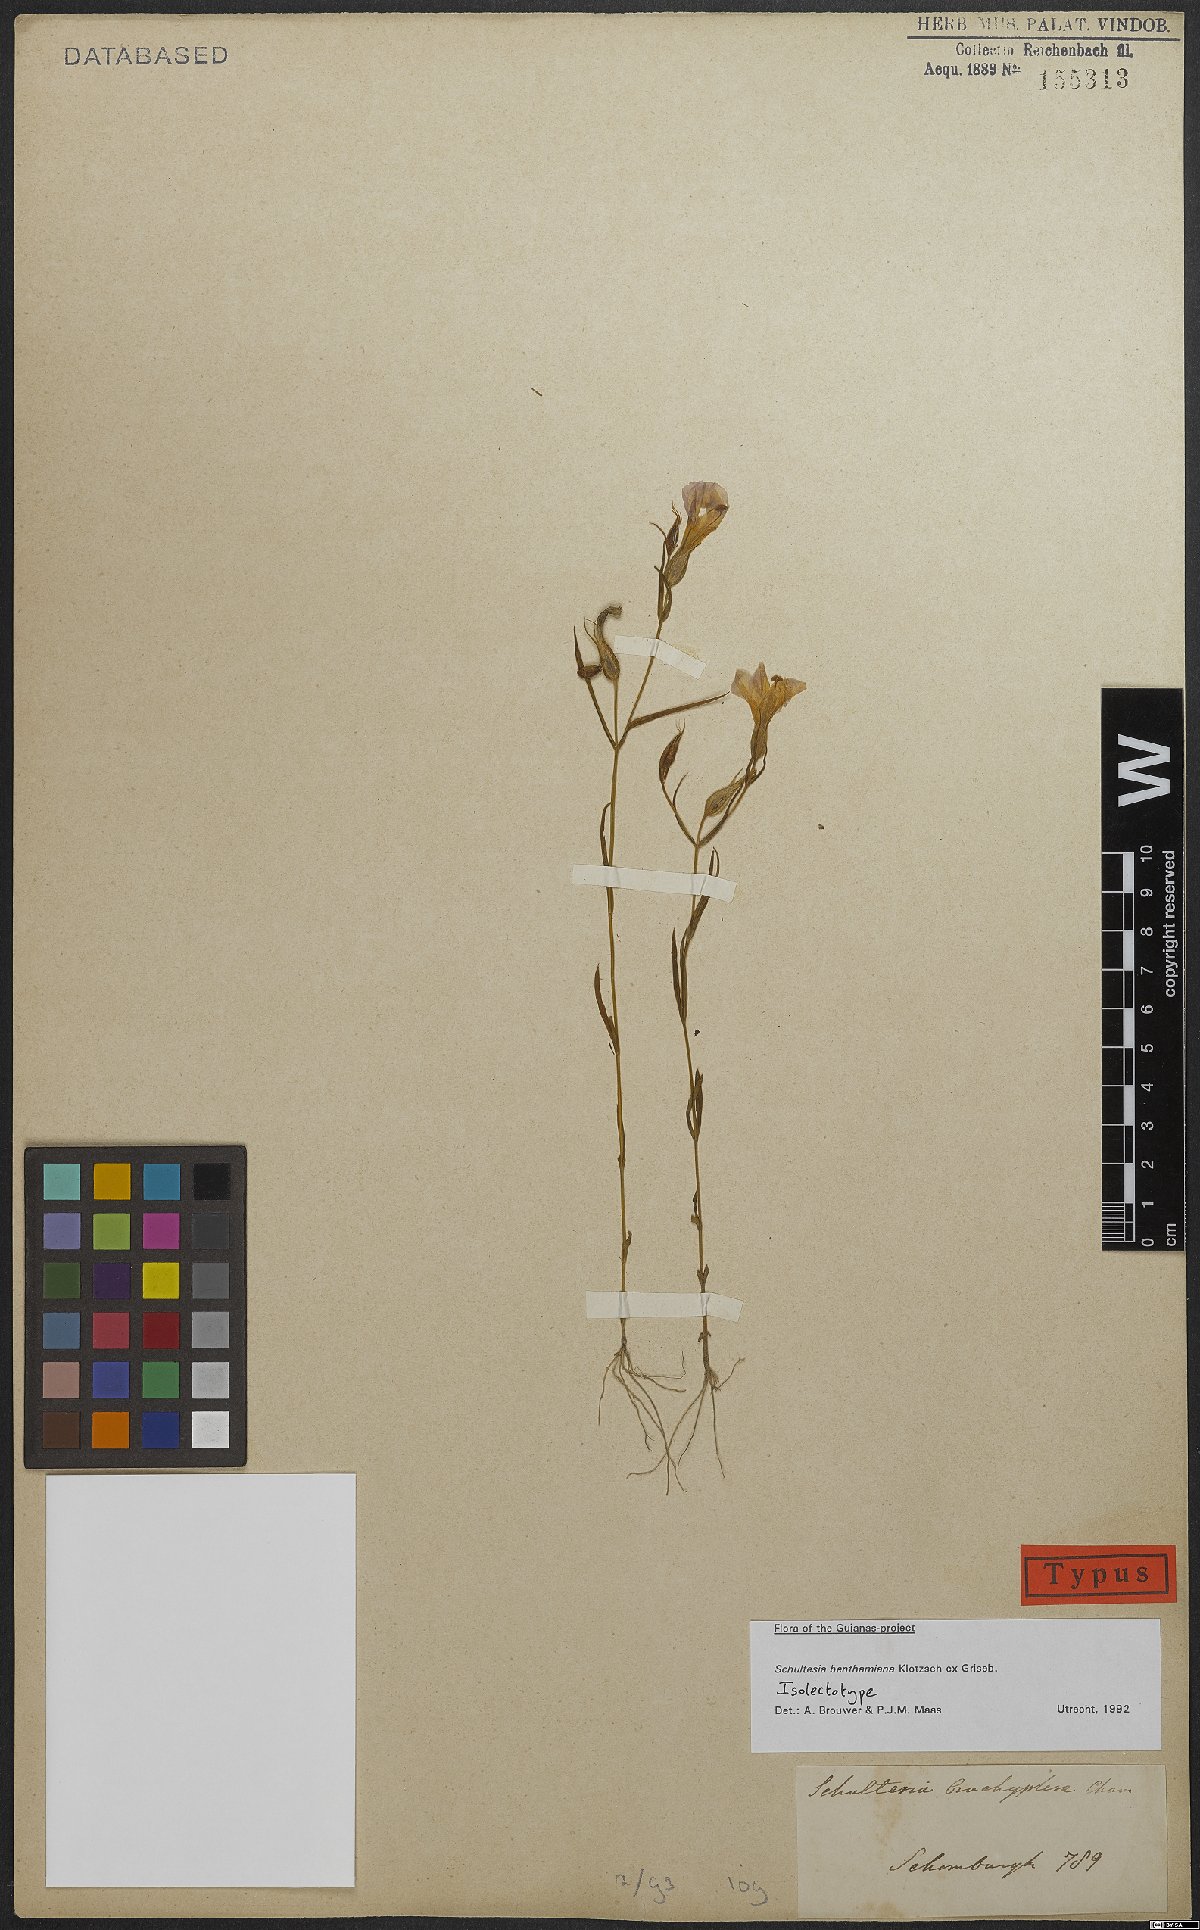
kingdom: Plantae
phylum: Tracheophyta
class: Magnoliopsida
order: Gentianales
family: Gentianaceae
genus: Schultesia
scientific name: Schultesia benthamiana
